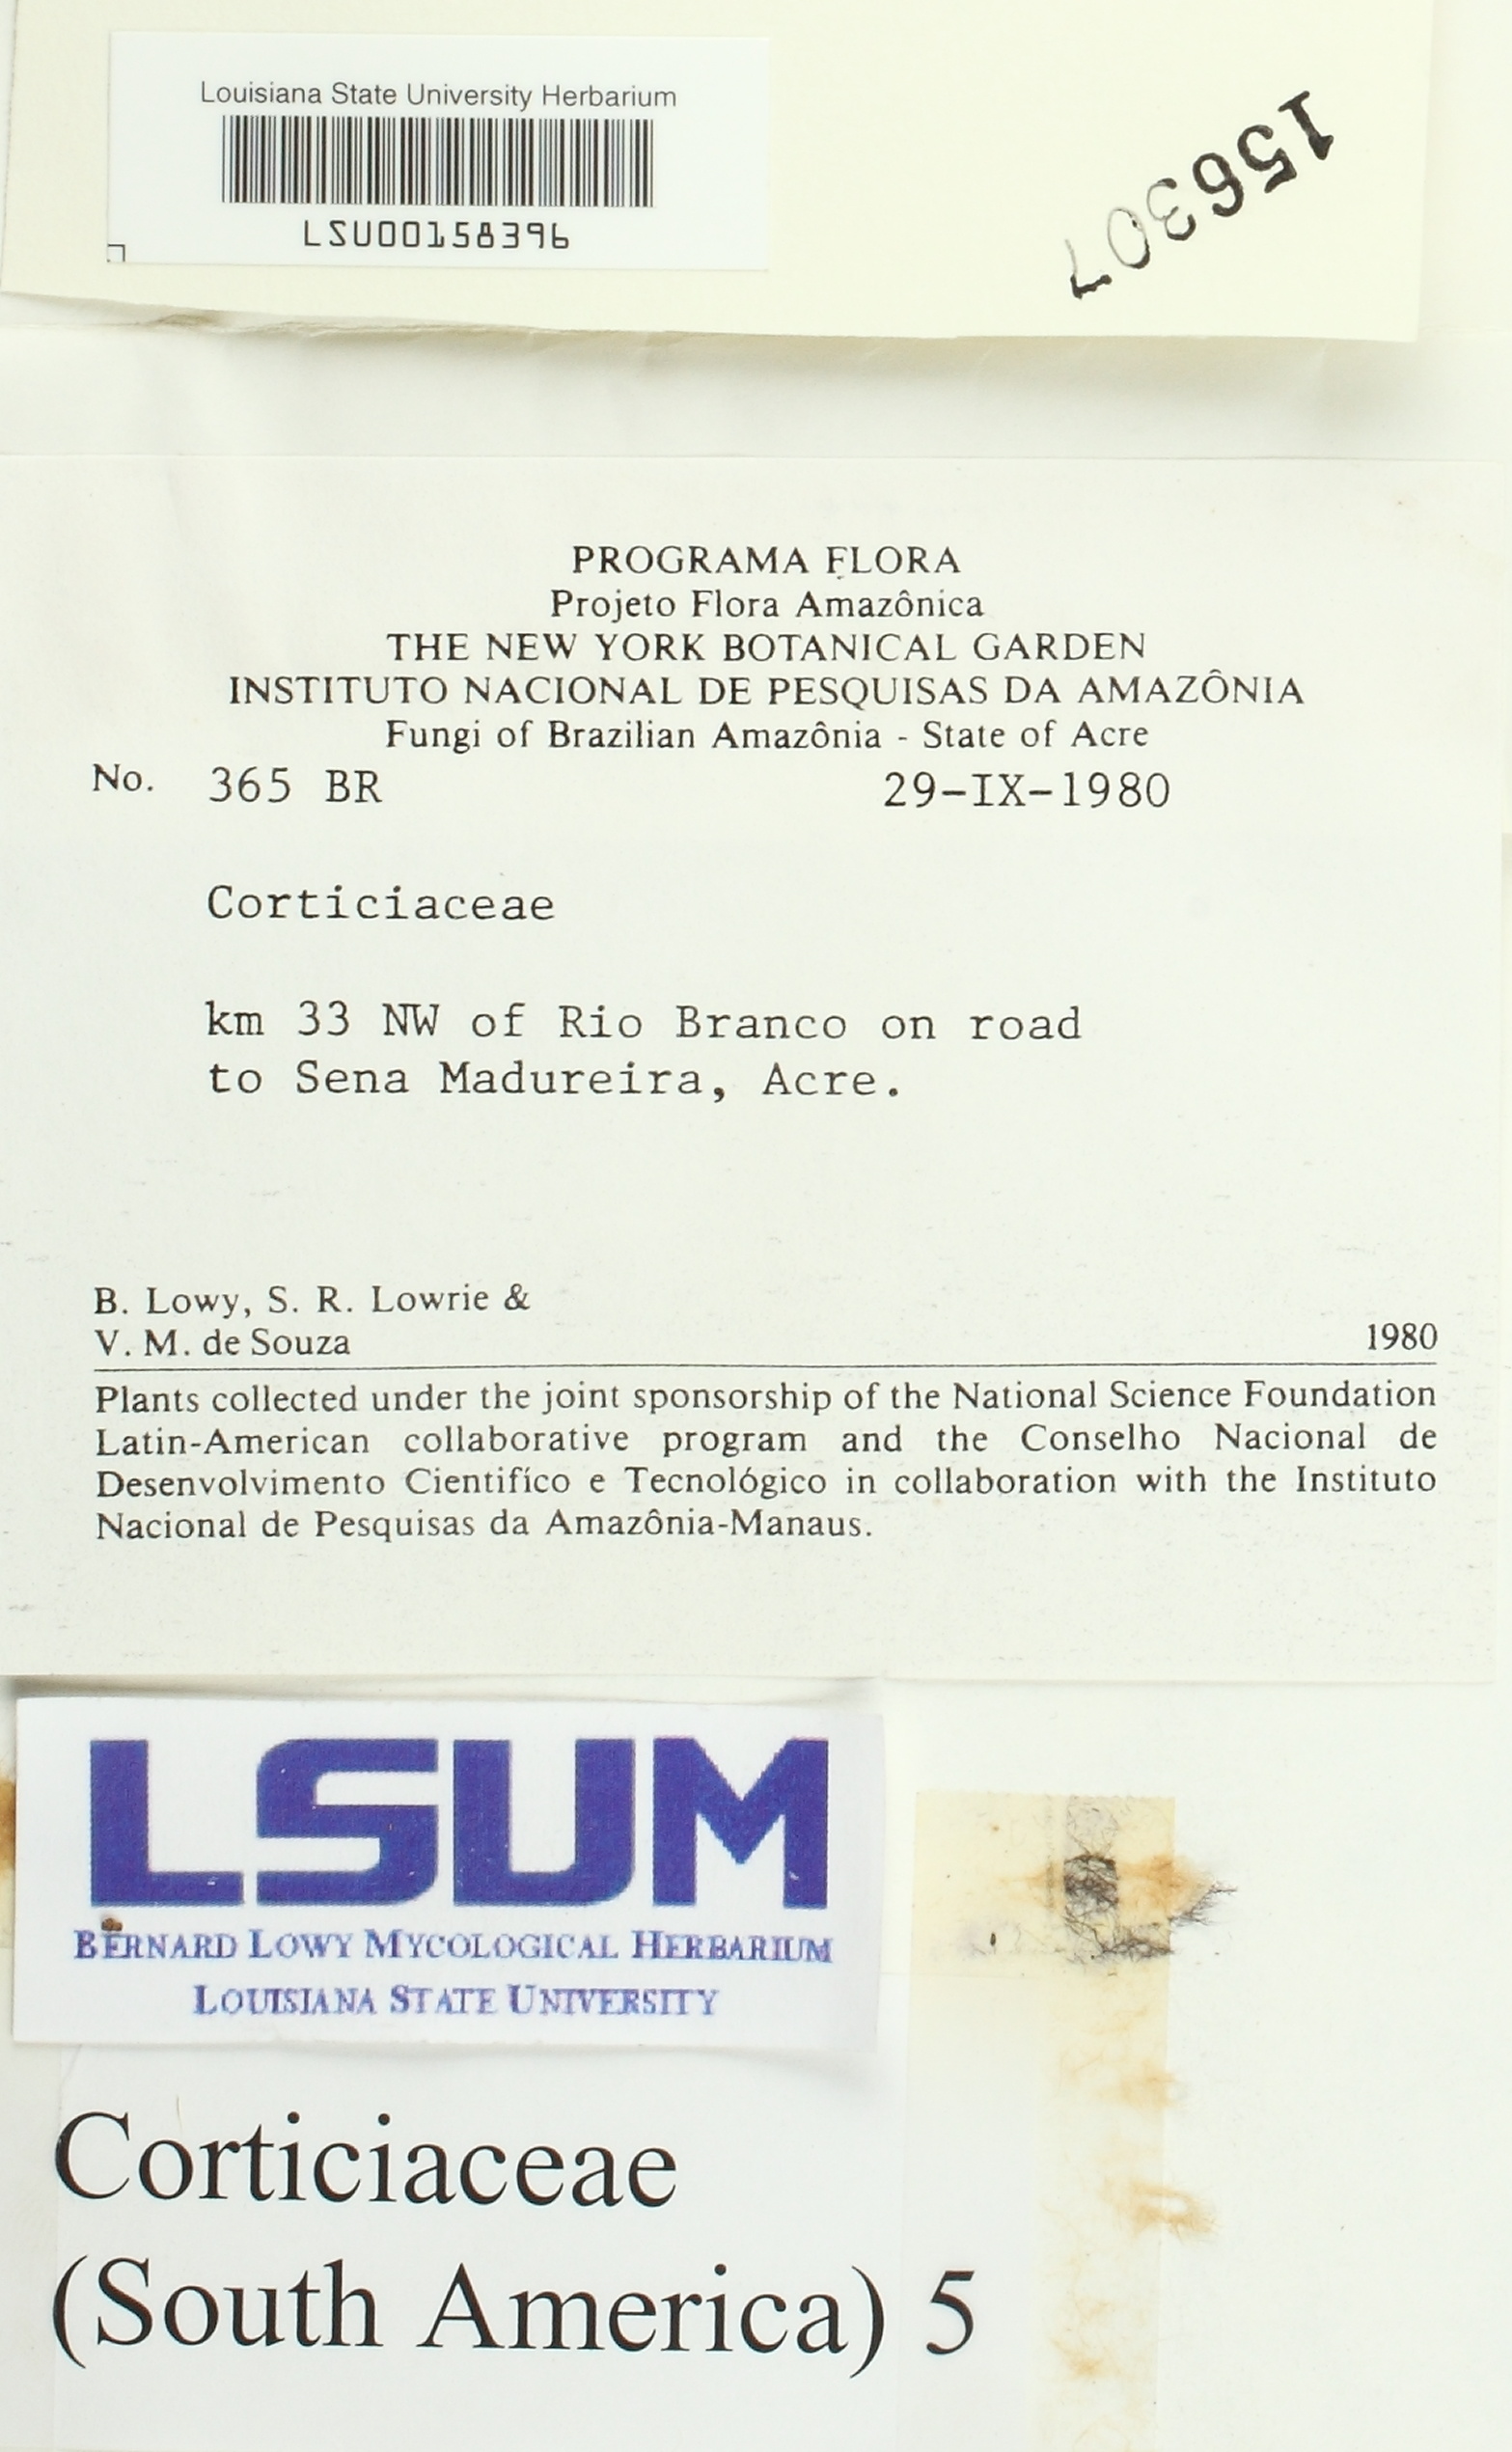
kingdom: Fungi
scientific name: Fungi
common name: Fungi
